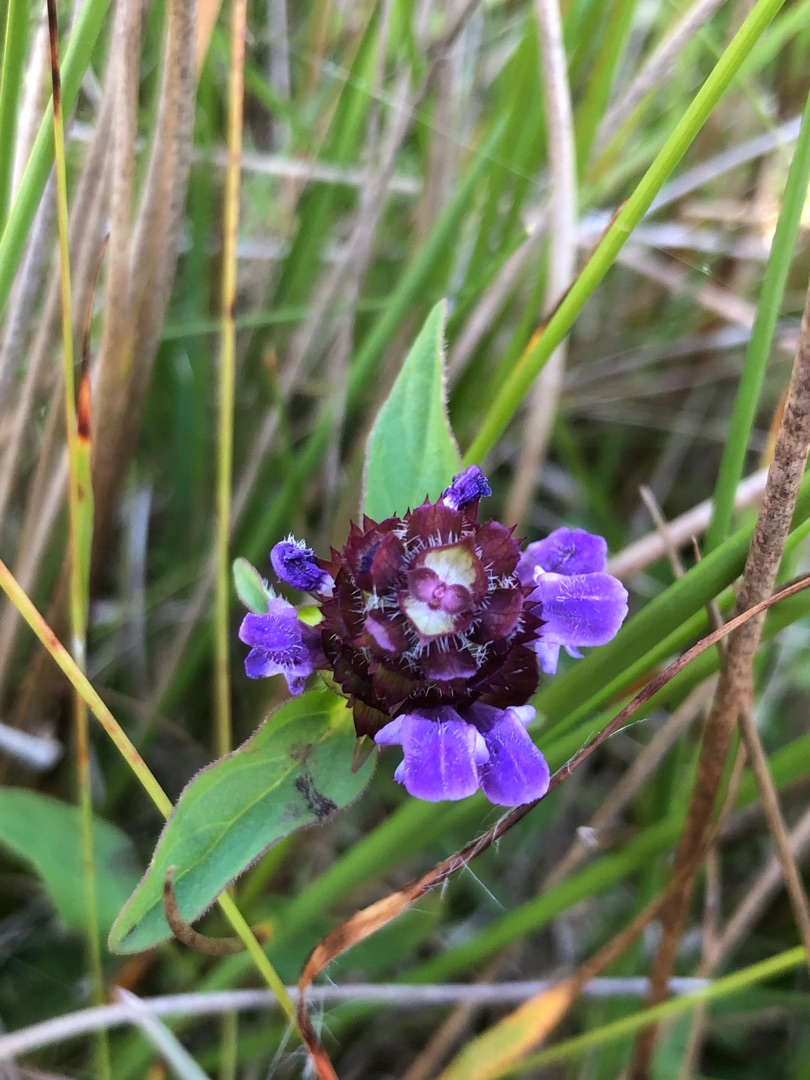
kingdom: Plantae
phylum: Tracheophyta
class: Magnoliopsida
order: Lamiales
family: Lamiaceae
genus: Prunella
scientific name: Prunella vulgaris
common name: Almindelig brunelle
